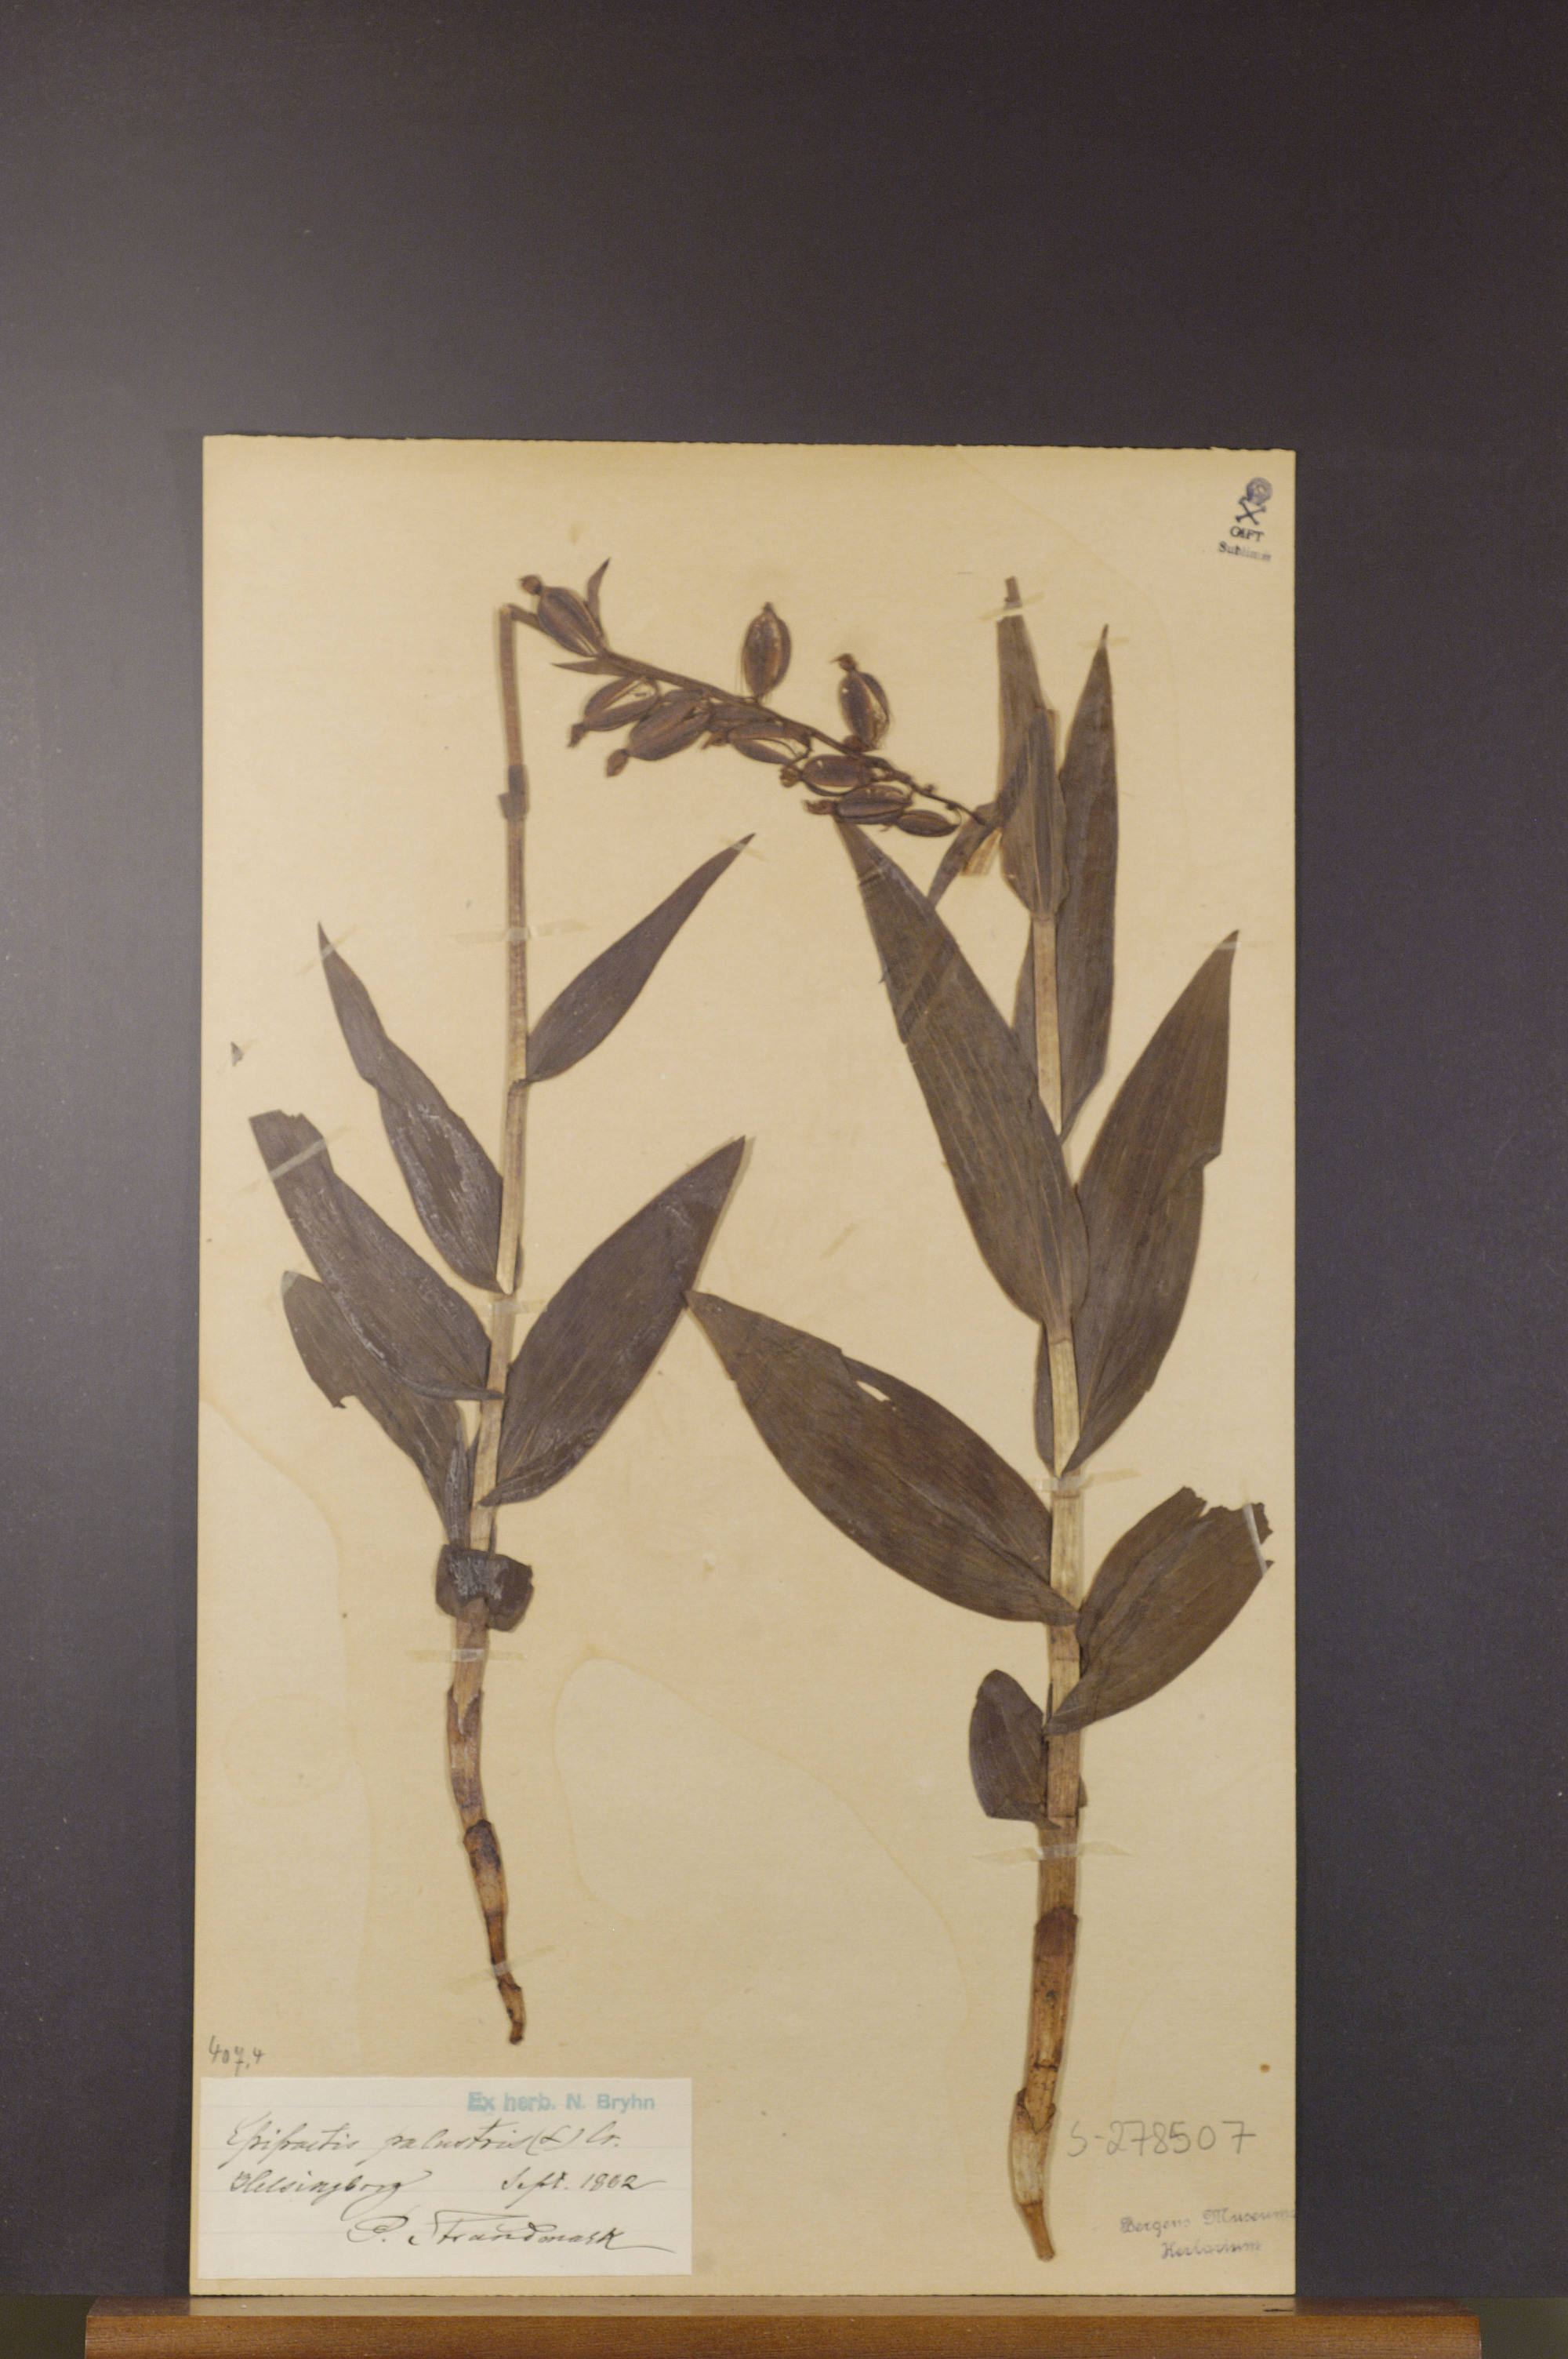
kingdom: Plantae
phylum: Tracheophyta
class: Liliopsida
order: Asparagales
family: Orchidaceae
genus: Epipactis
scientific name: Epipactis palustris
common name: Marsh helleborine
